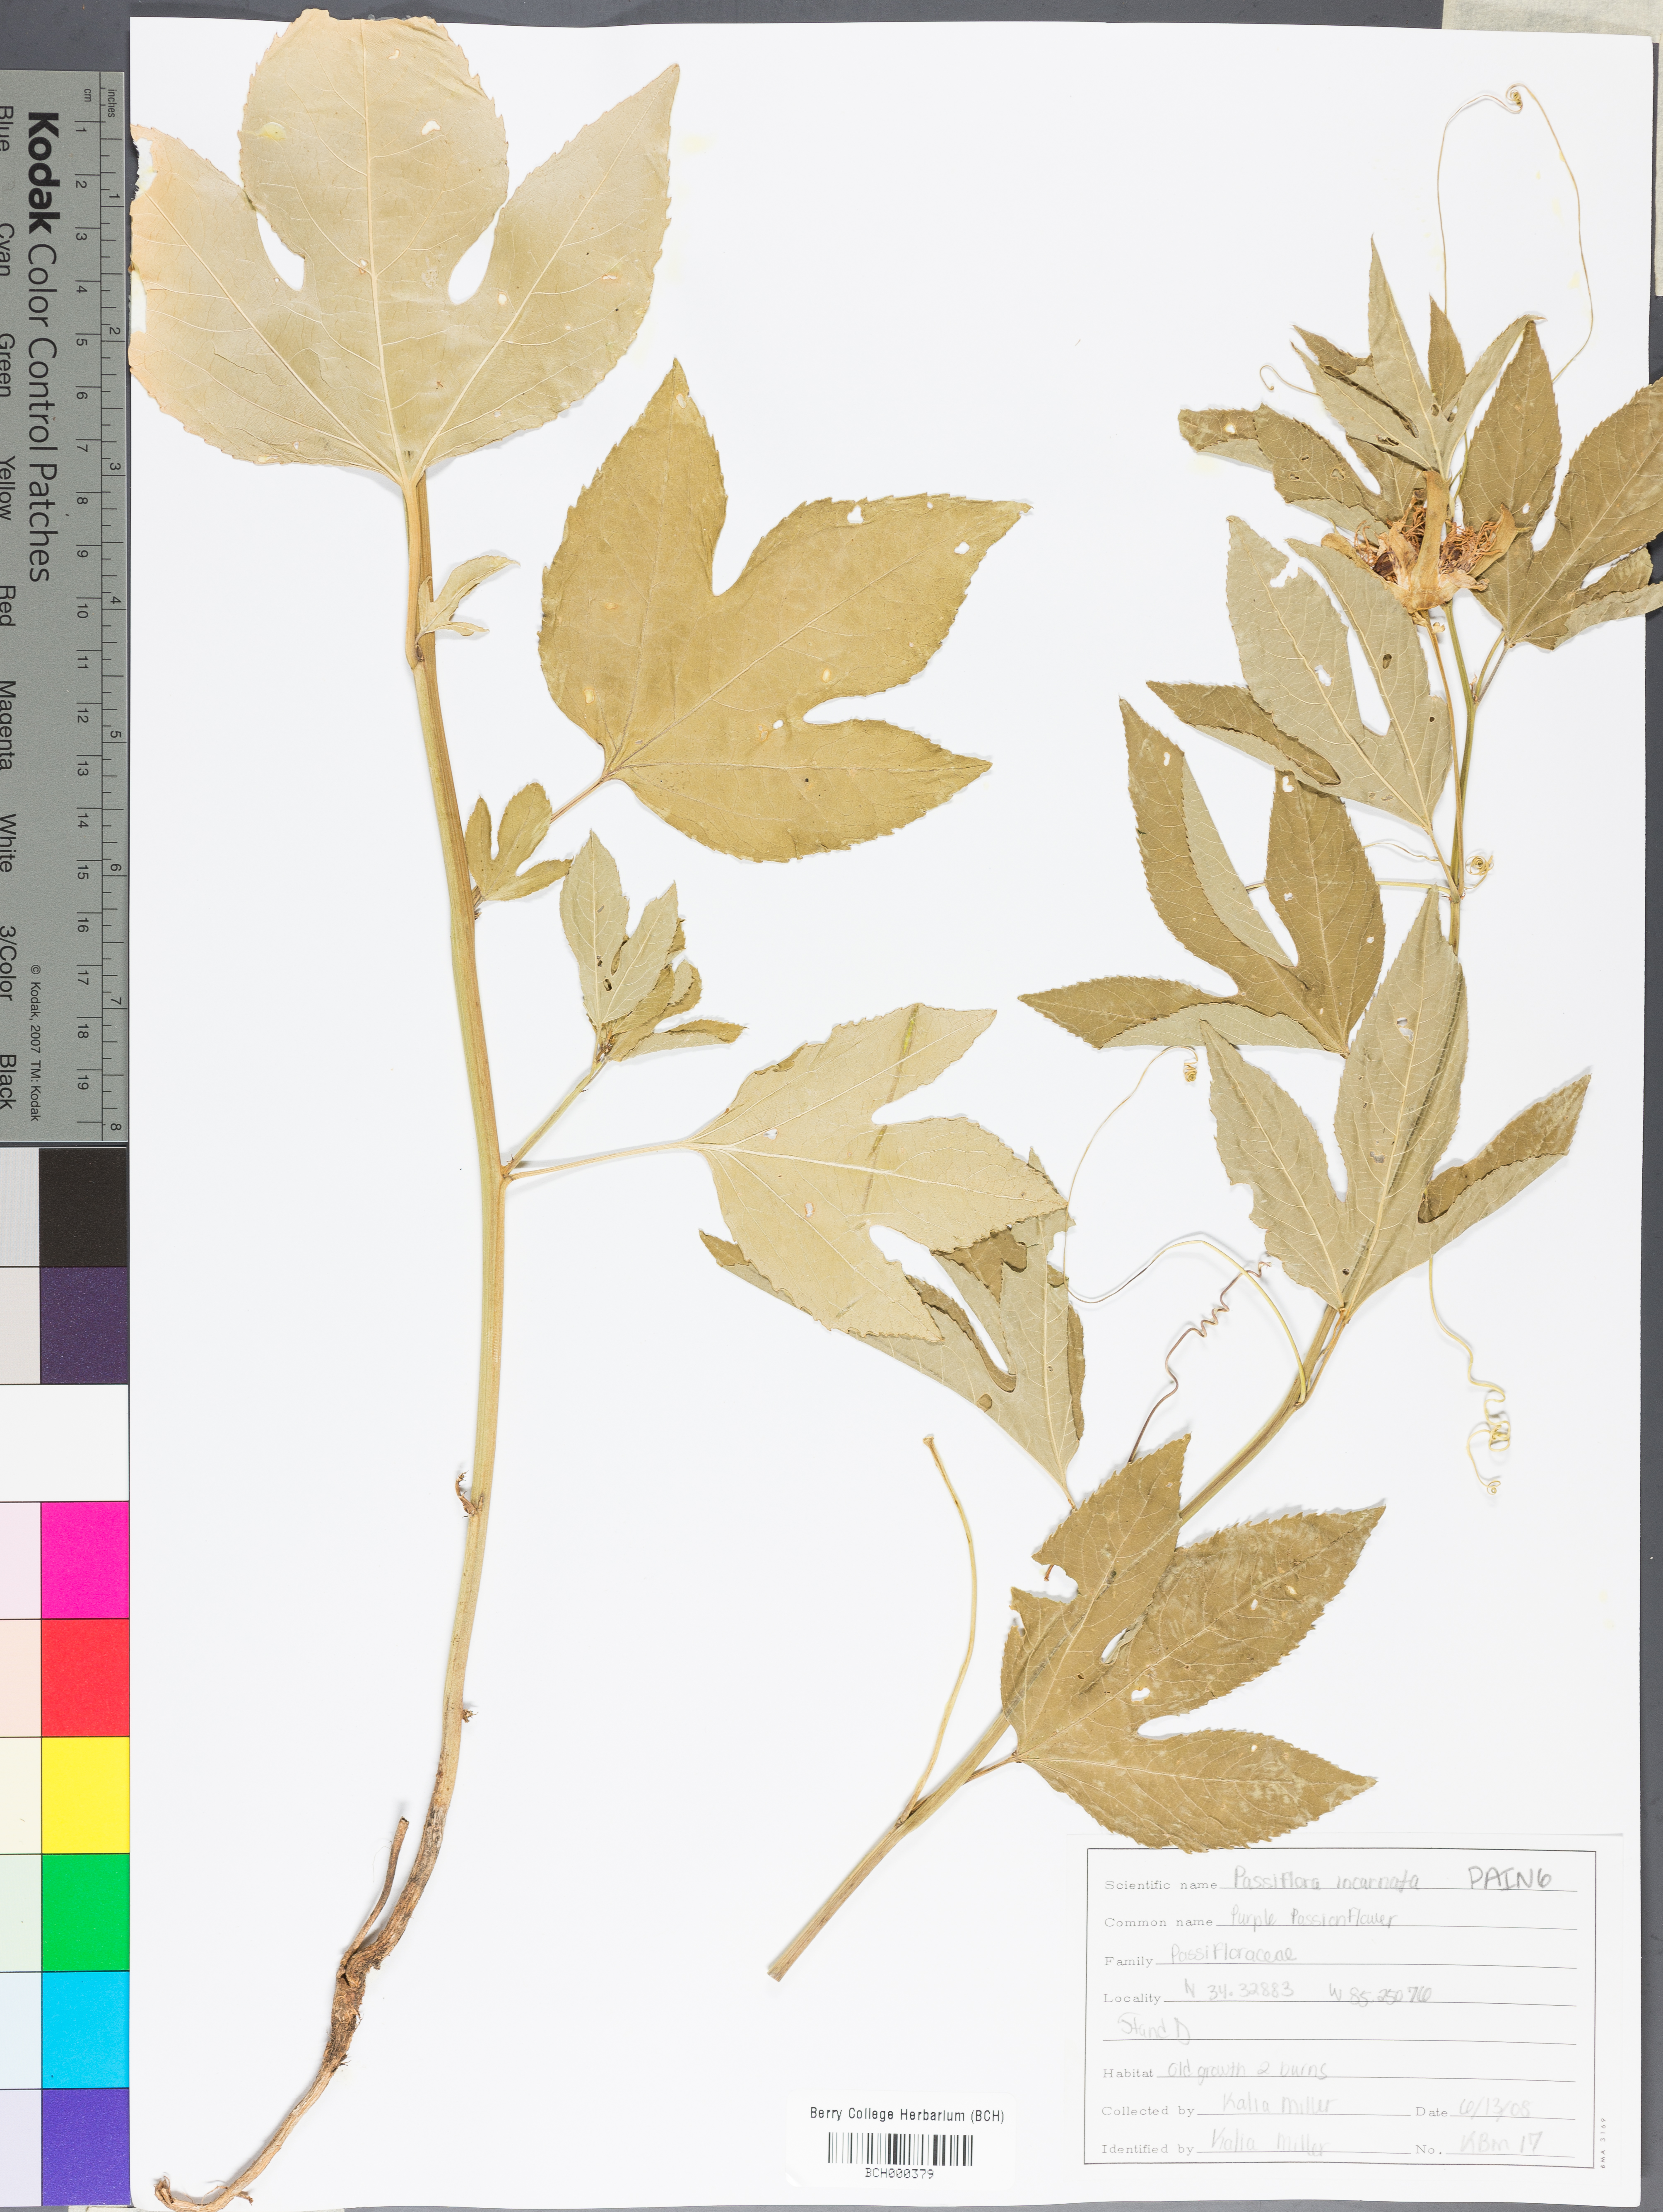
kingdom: Plantae
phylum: Tracheophyta
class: Magnoliopsida
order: Malpighiales
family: Passifloraceae
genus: Passiflora
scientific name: Passiflora incarnata
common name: Apricot-vine
